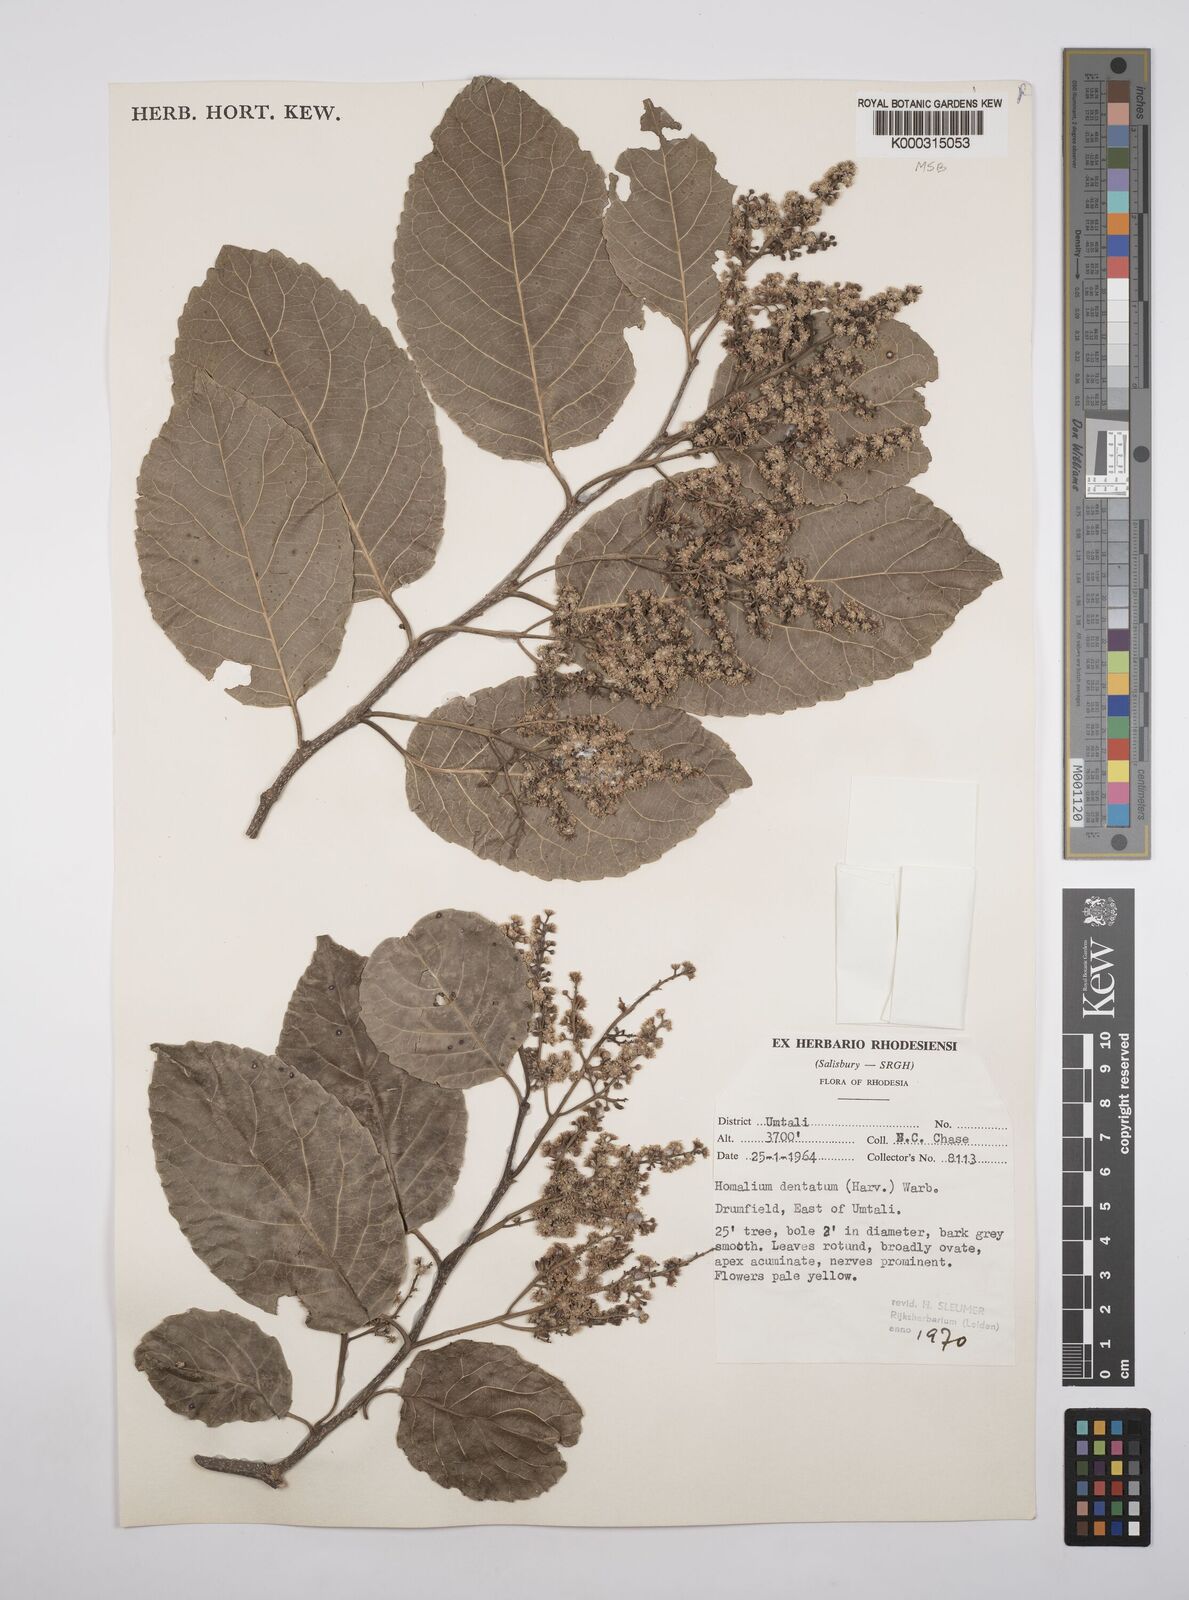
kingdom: Plantae
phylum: Tracheophyta
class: Magnoliopsida
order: Malpighiales
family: Salicaceae
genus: Homalium
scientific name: Homalium dentatum
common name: Brown ironwood
